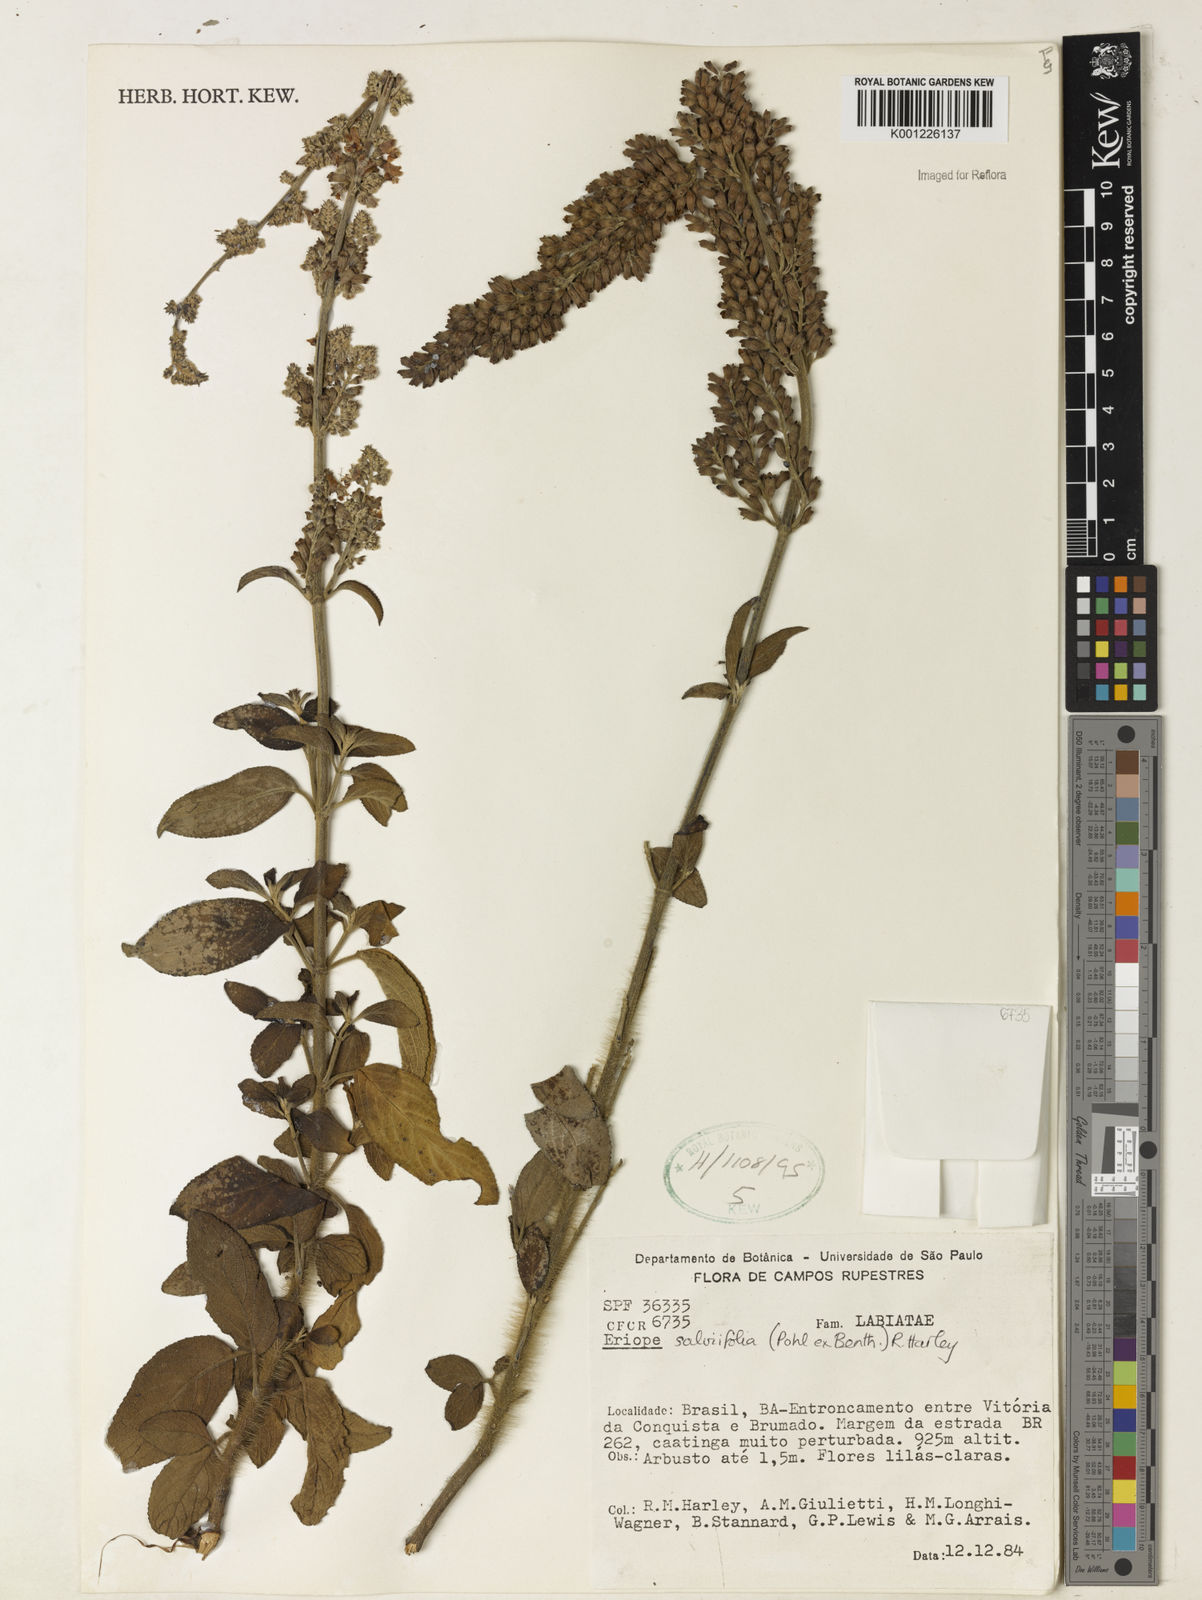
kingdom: Plantae
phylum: Tracheophyta
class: Magnoliopsida
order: Lamiales
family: Lamiaceae
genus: Eriope
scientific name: Eriope salviifolia
